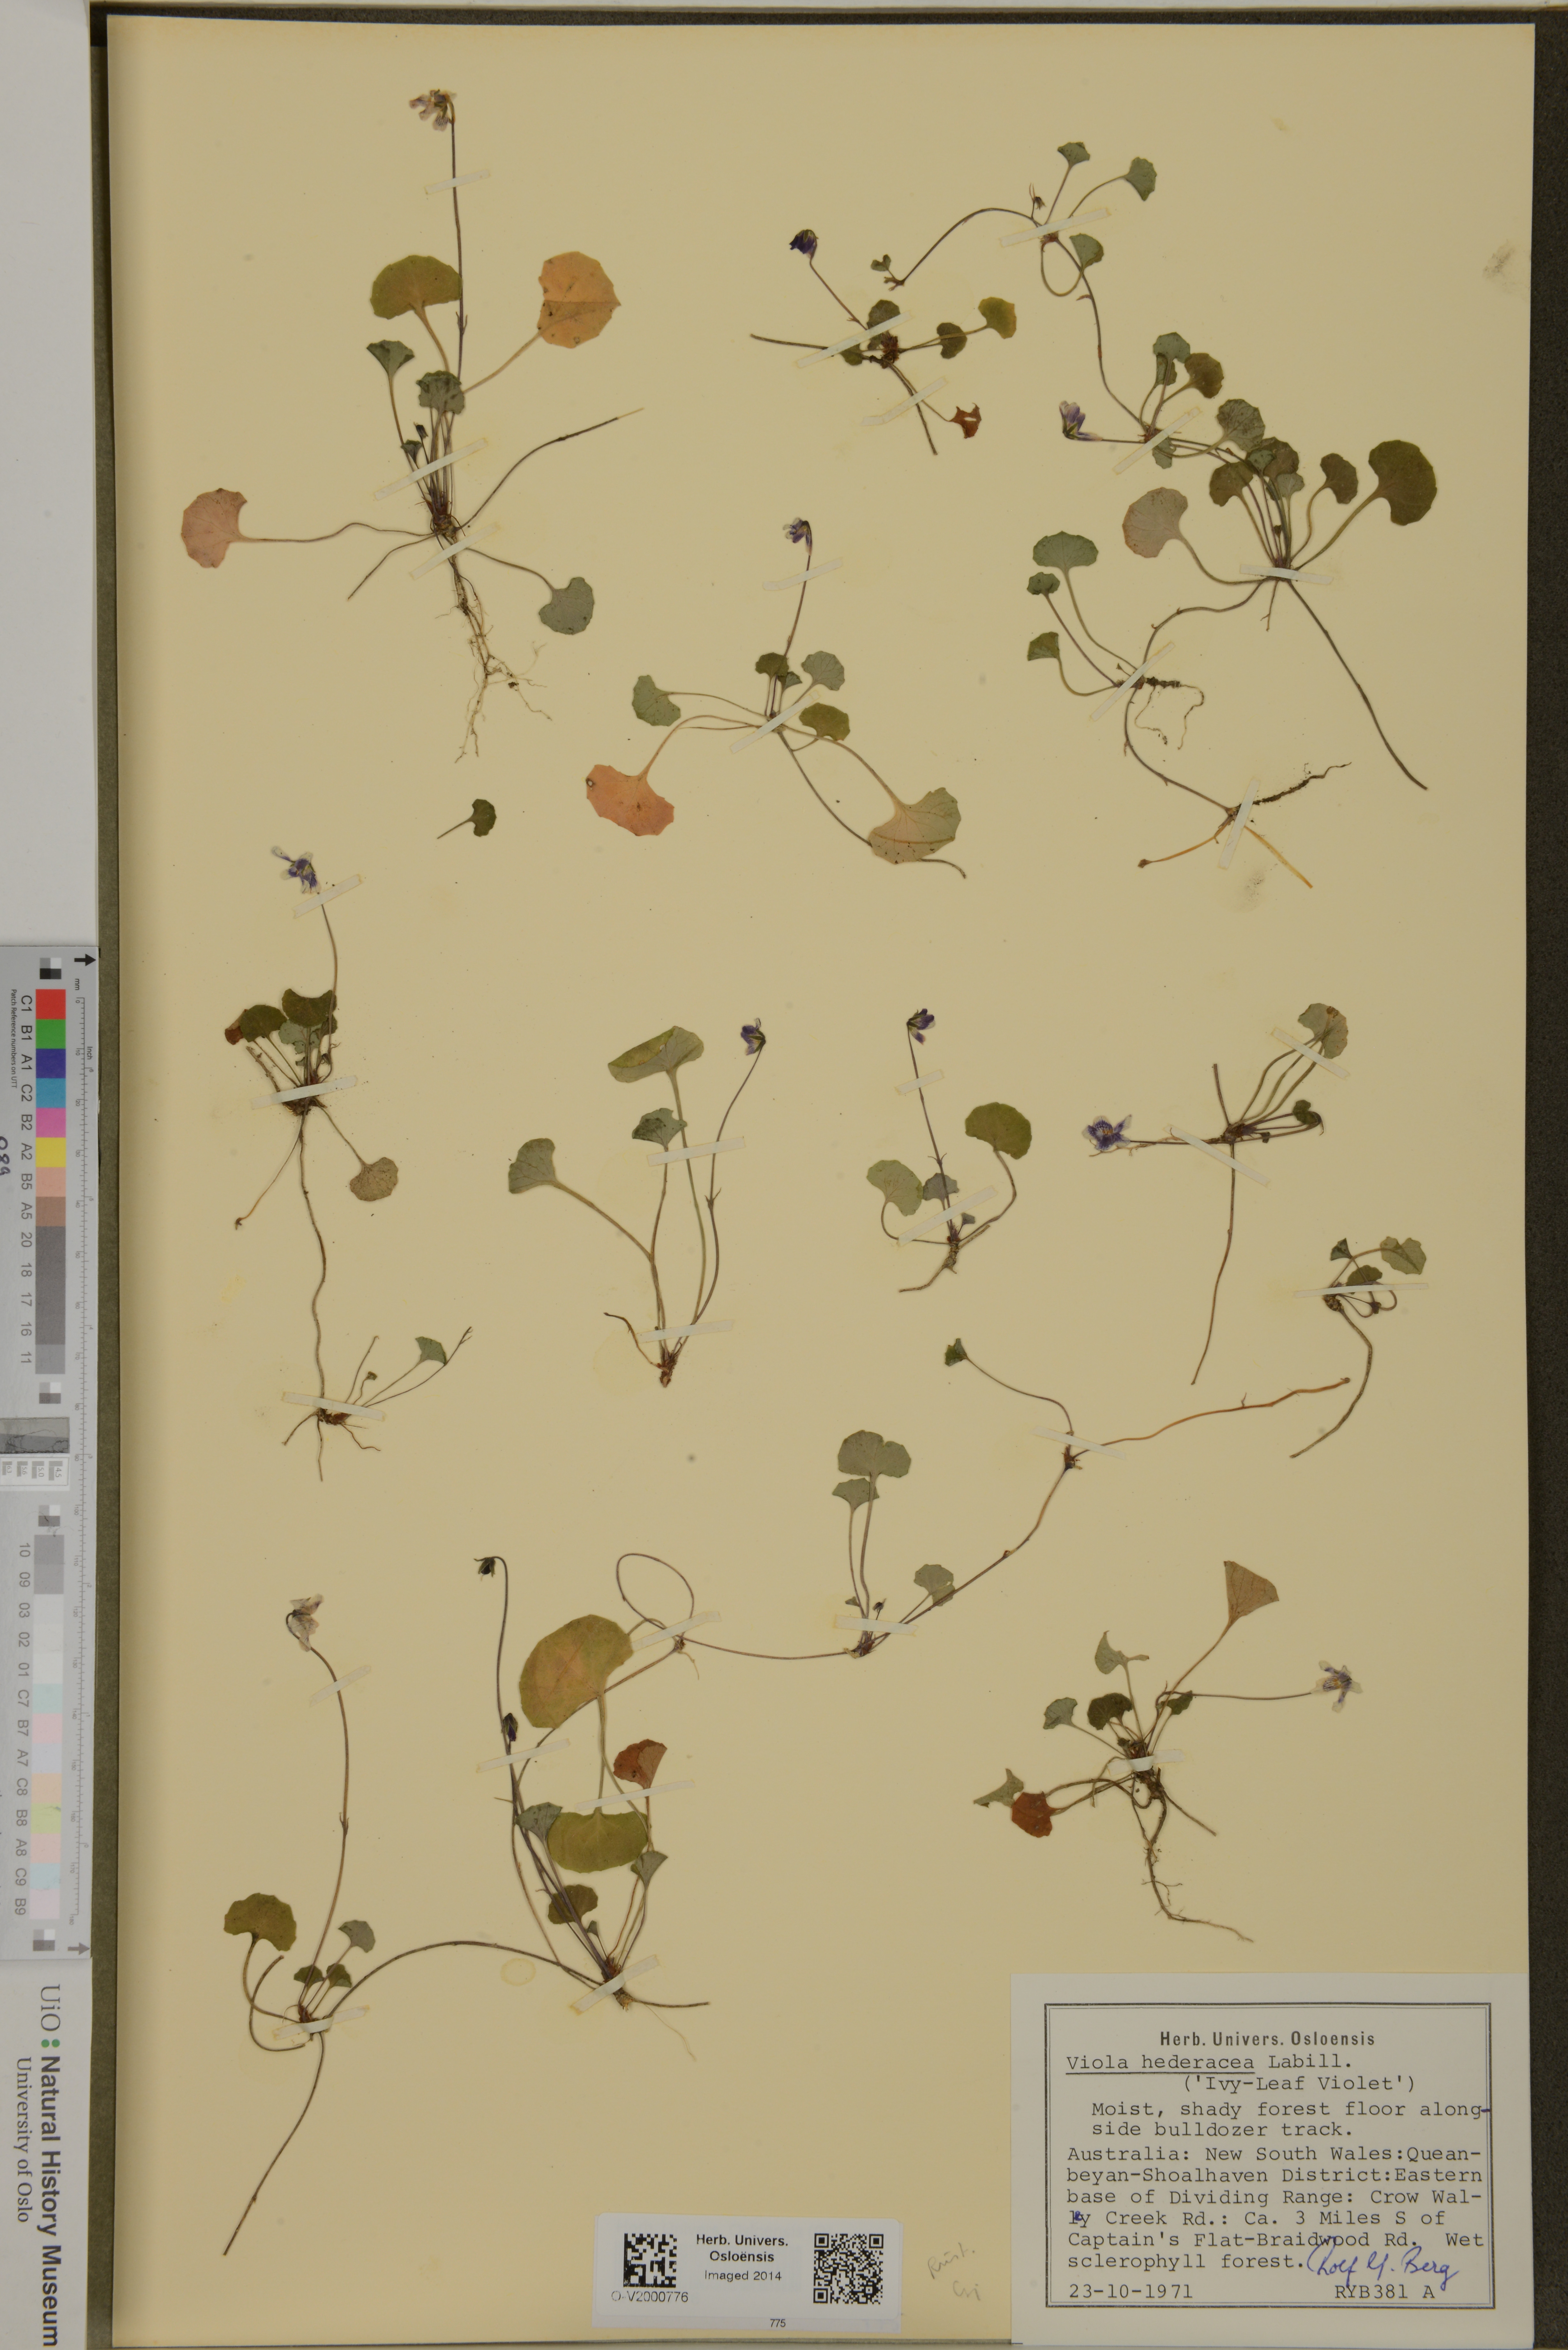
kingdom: Plantae
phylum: Tracheophyta
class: Magnoliopsida
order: Malpighiales
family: Violaceae
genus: Viola
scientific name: Viola hederacea
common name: Australian violet
